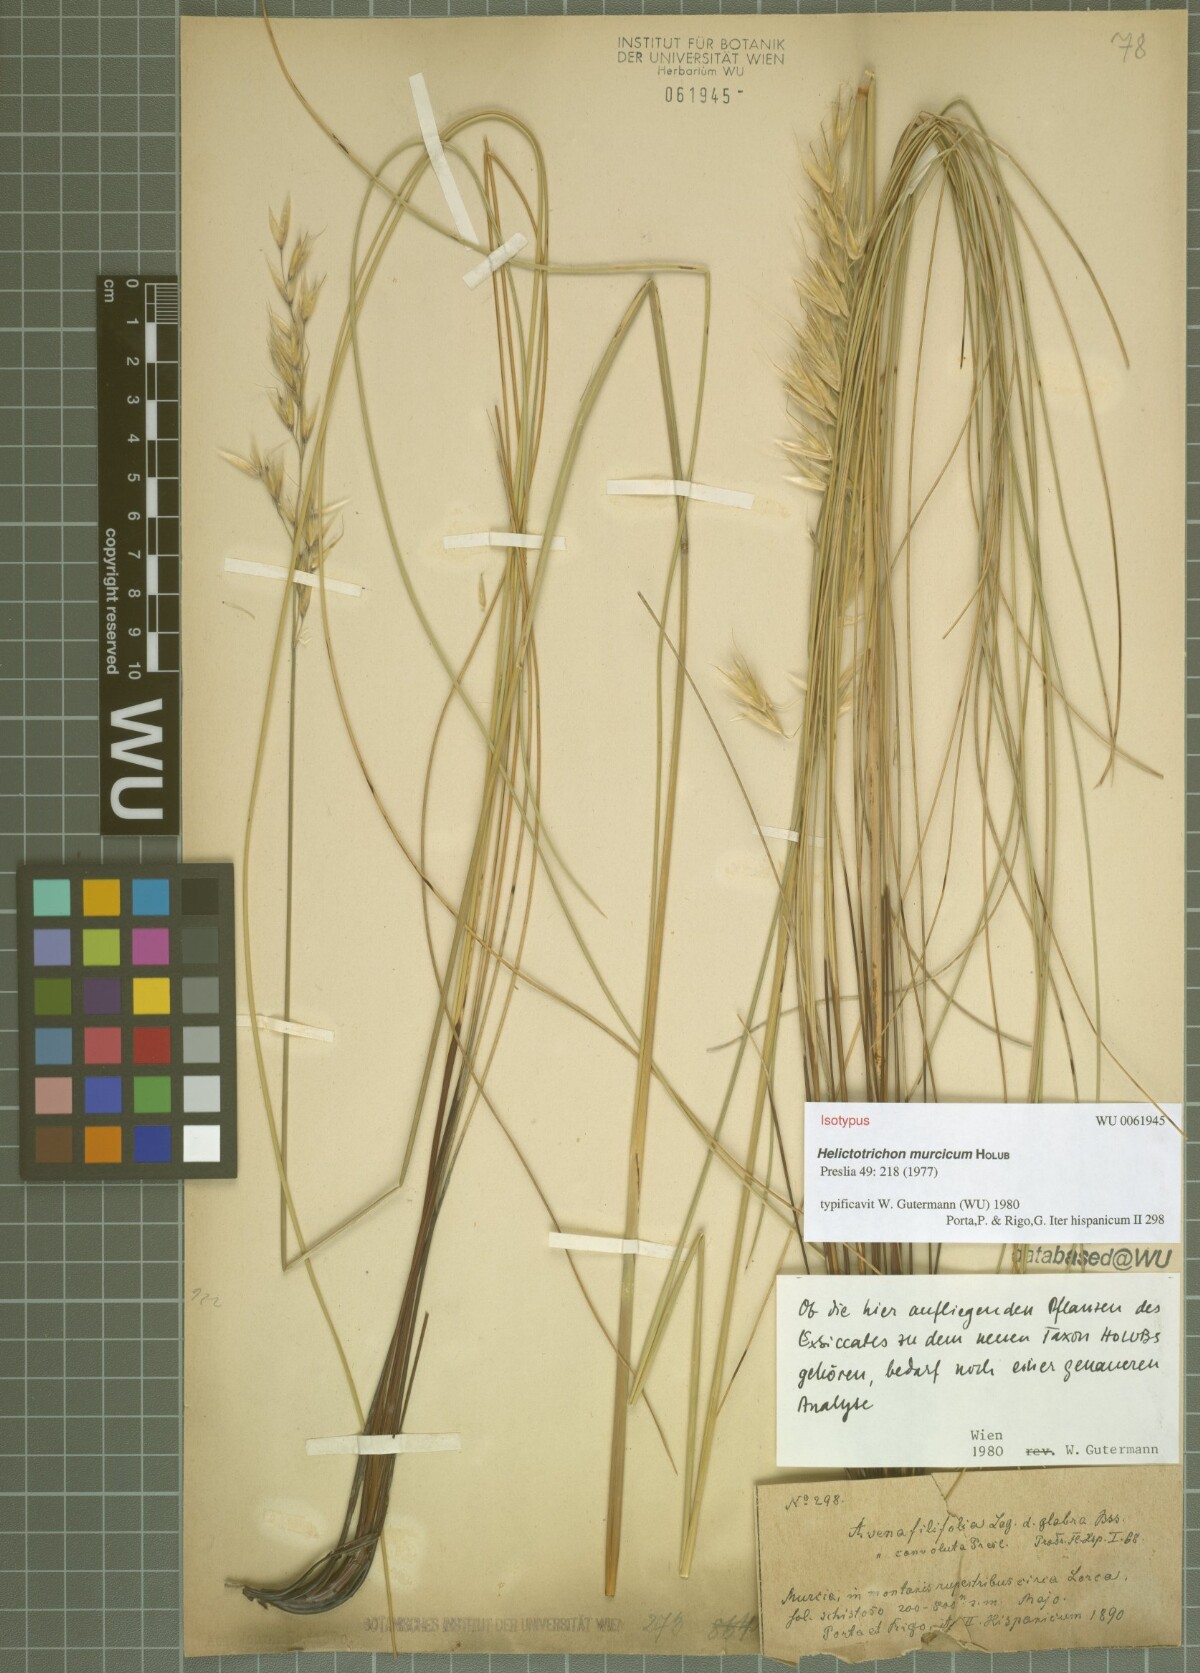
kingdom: Plantae
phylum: Tracheophyta
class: Liliopsida
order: Poales
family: Poaceae
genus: Helictotrichon
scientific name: Helictotrichon murcicum
